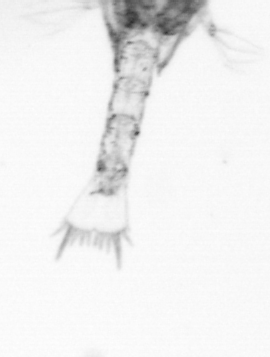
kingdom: Animalia
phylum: Arthropoda
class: Copepoda
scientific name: Copepoda
